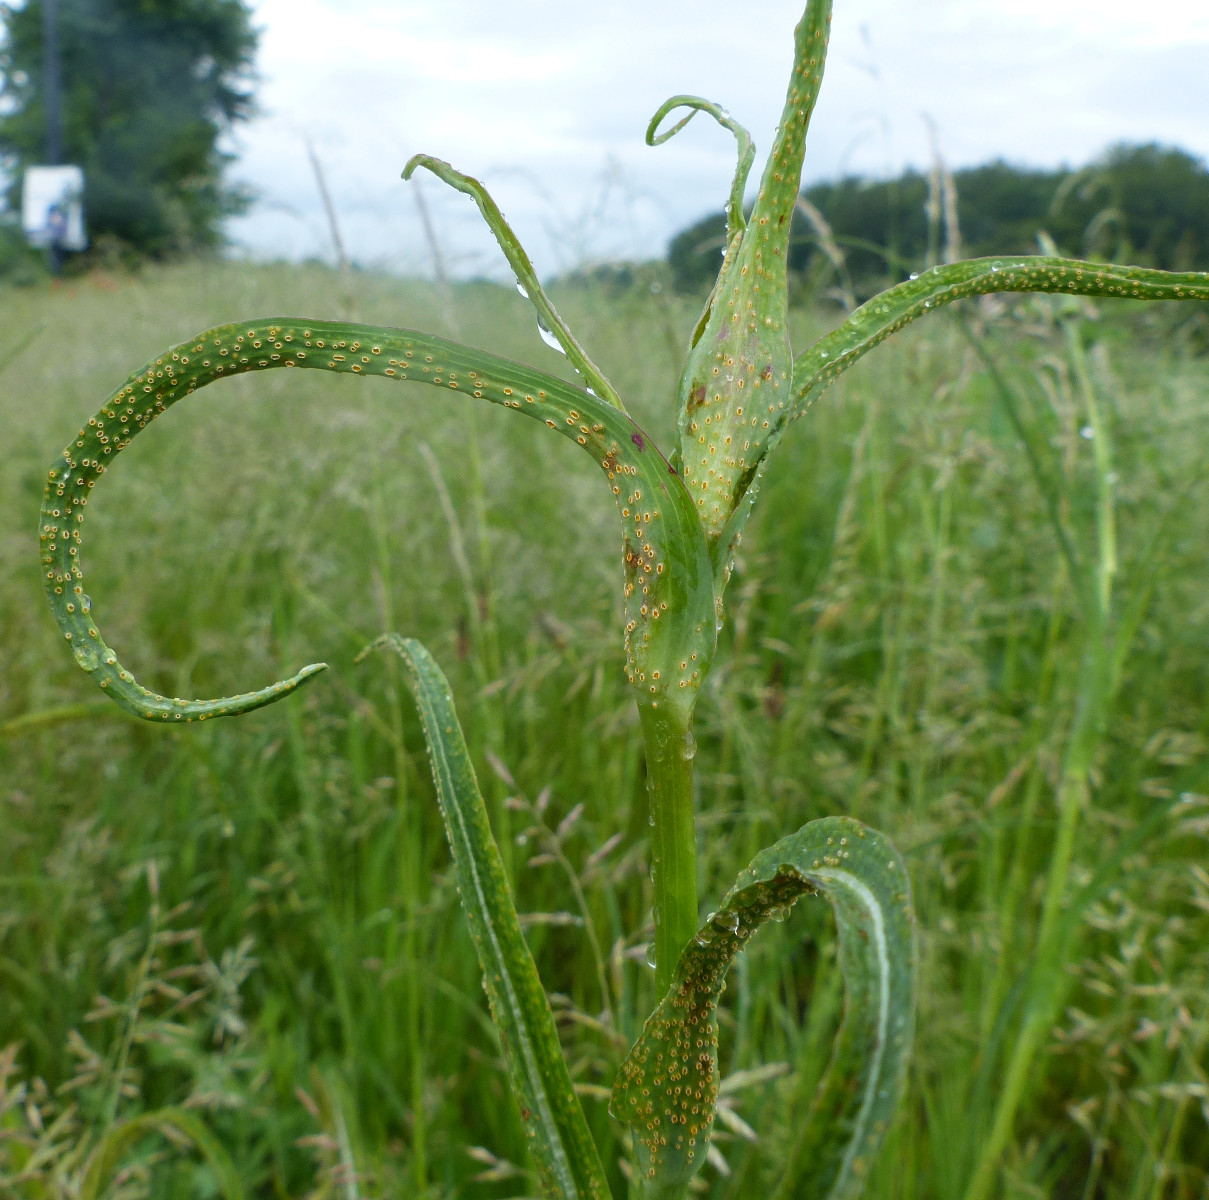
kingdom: Fungi
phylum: Basidiomycota
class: Pucciniomycetes
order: Pucciniales
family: Pucciniaceae
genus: Puccinia
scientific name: Puccinia hysterium
